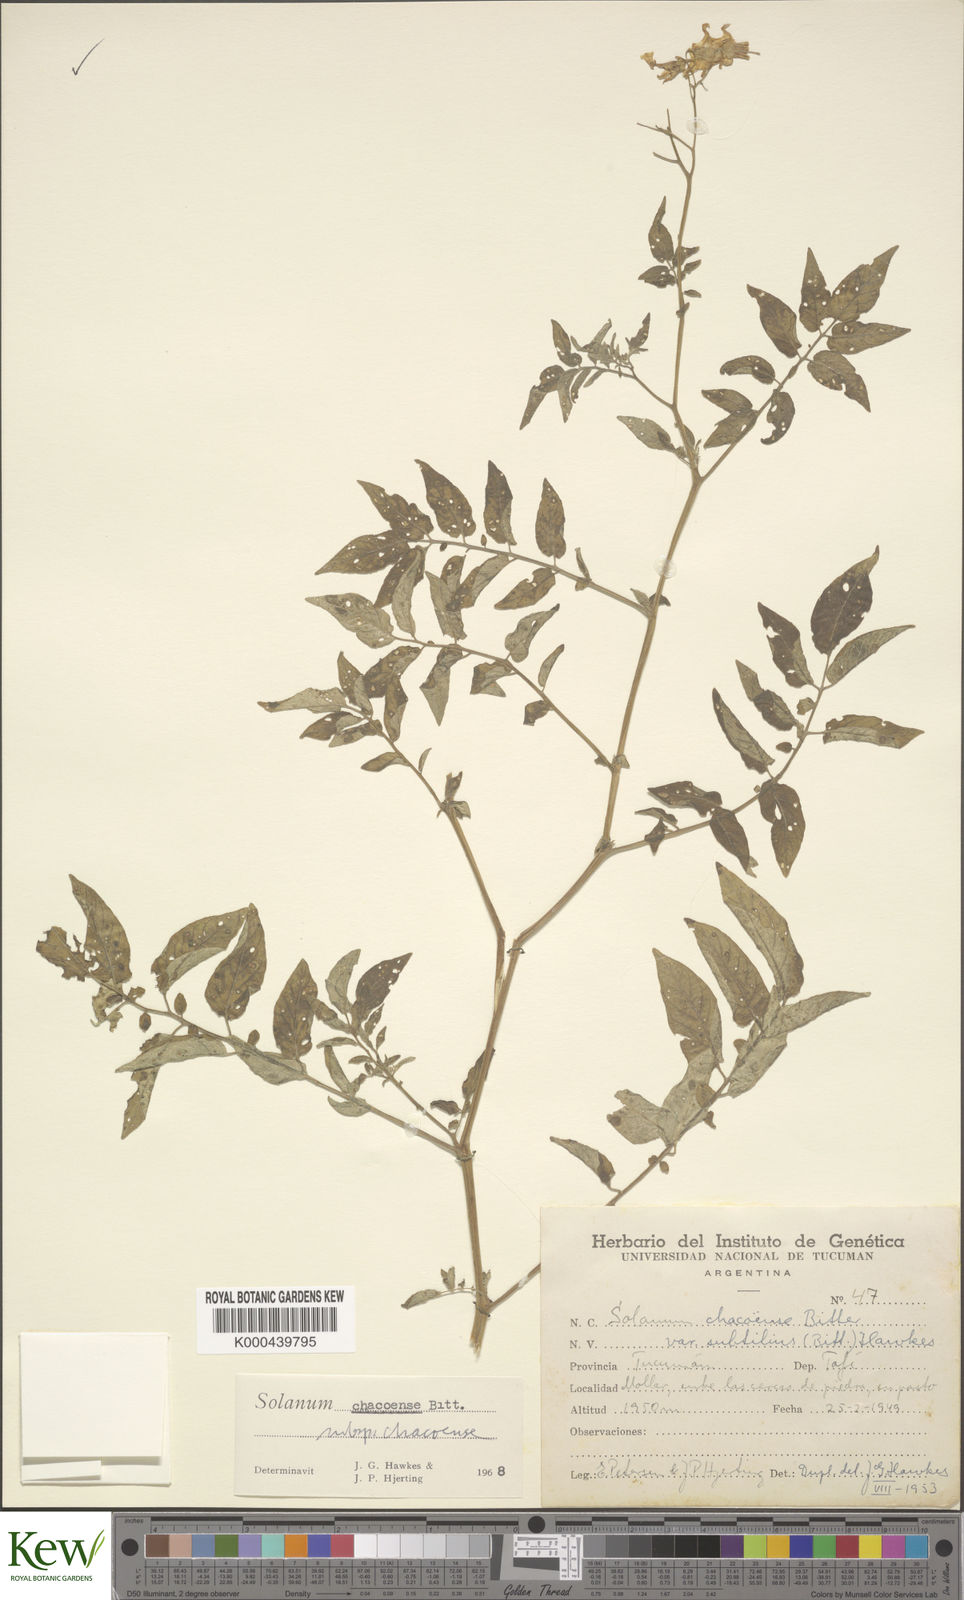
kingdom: Plantae
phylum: Tracheophyta
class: Magnoliopsida
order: Solanales
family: Solanaceae
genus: Solanum
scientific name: Solanum chacoense
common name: Chaco potato
